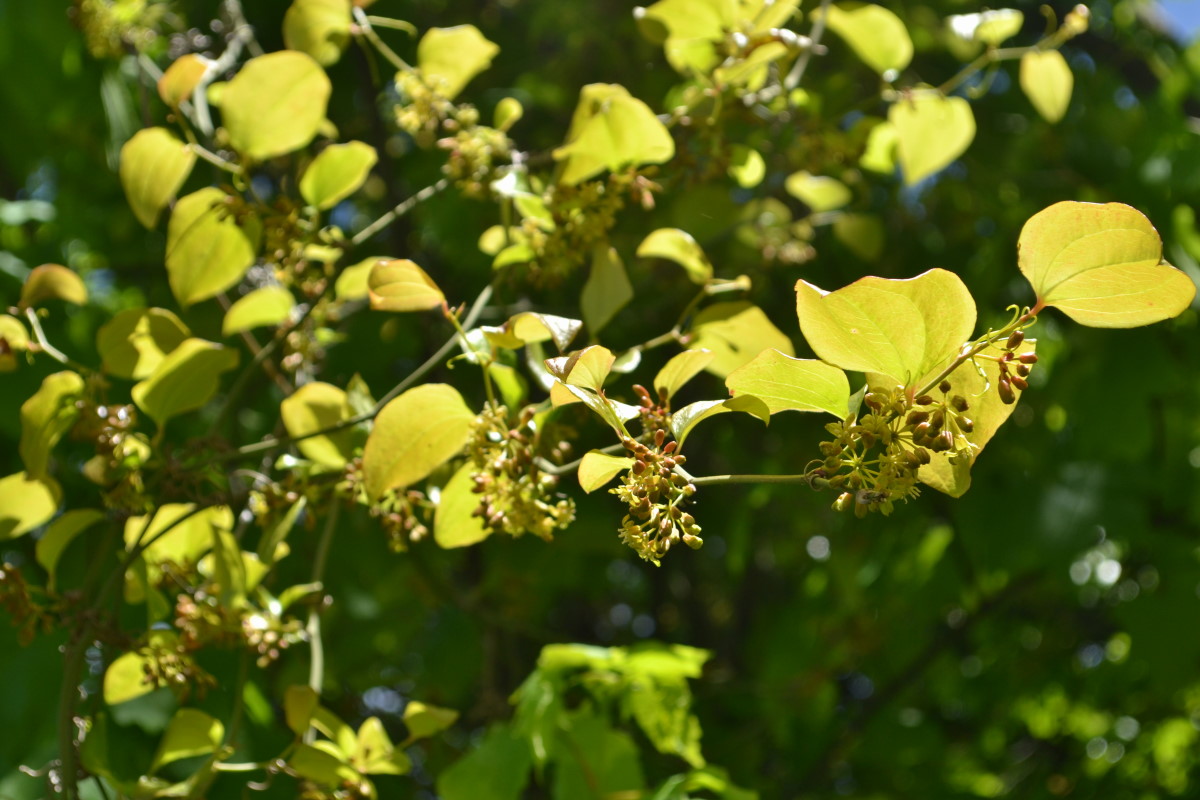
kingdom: Plantae
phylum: Tracheophyta
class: Liliopsida
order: Liliales
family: Smilacaceae
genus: Smilax
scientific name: Smilax
